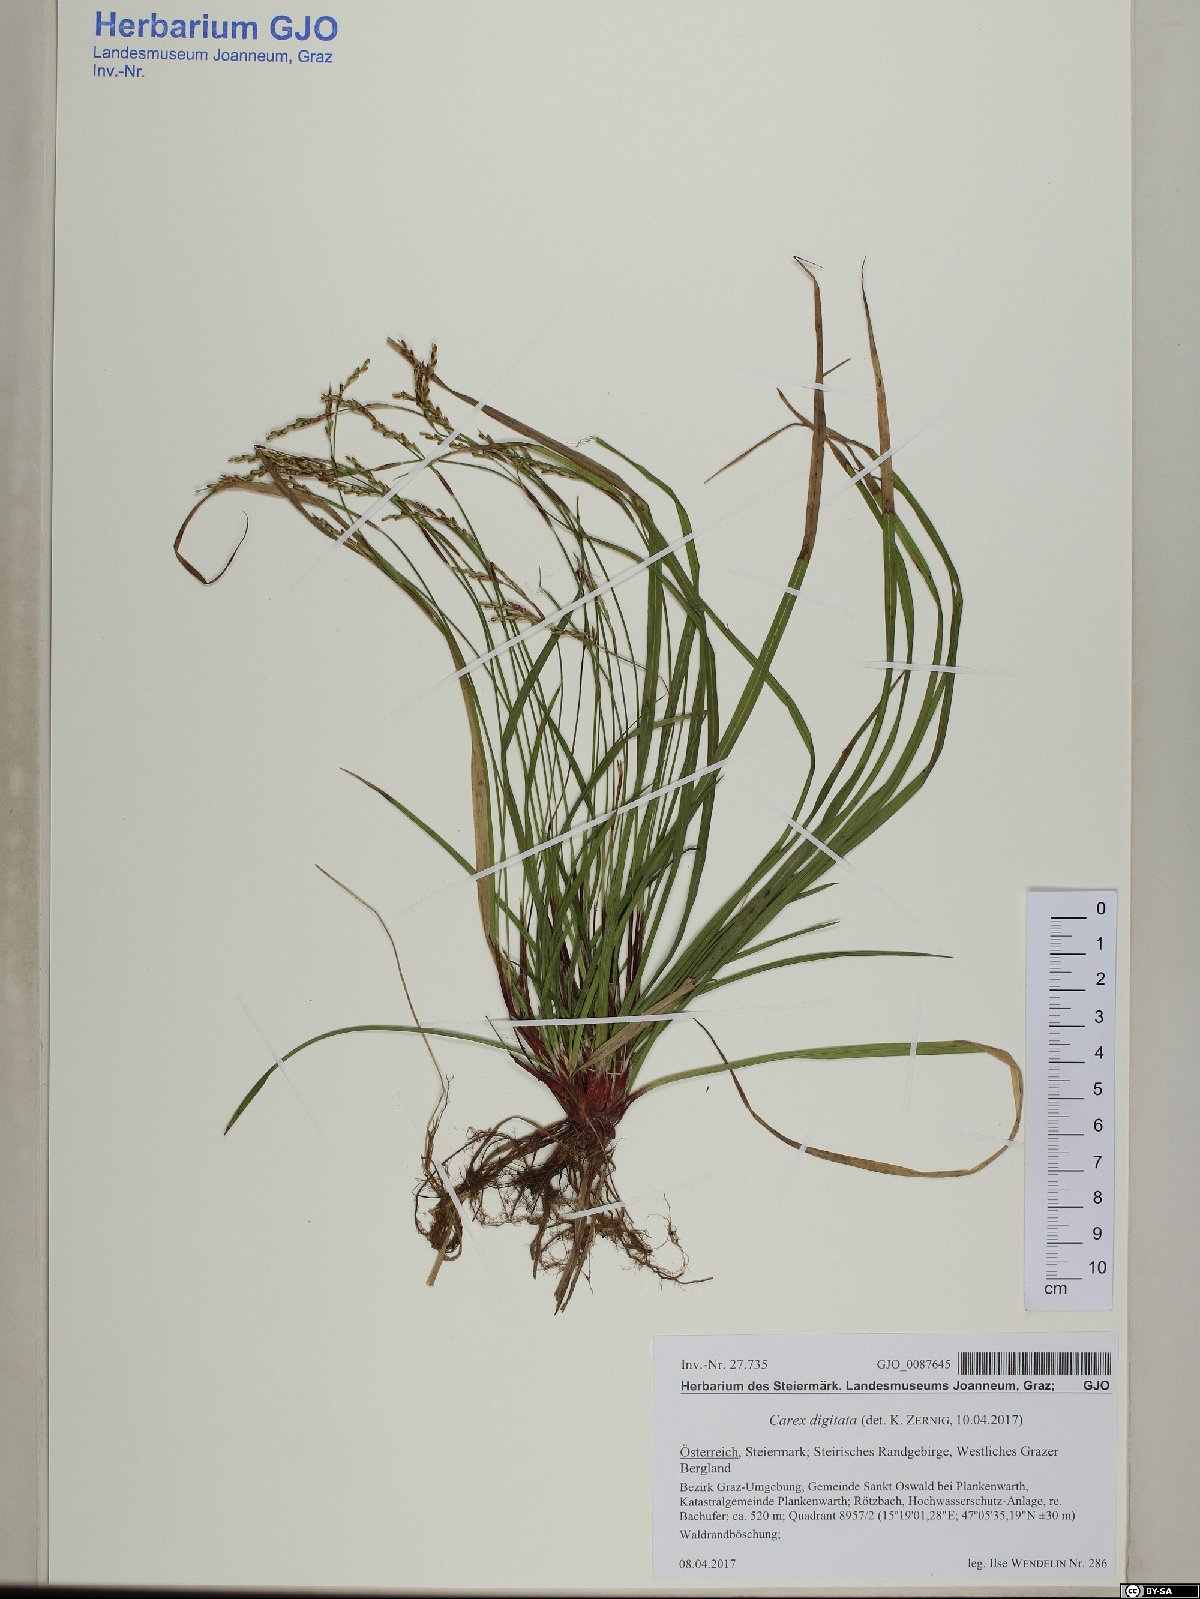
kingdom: Plantae
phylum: Tracheophyta
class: Liliopsida
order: Poales
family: Cyperaceae
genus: Carex
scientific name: Carex digitata
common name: Fingered sedge
